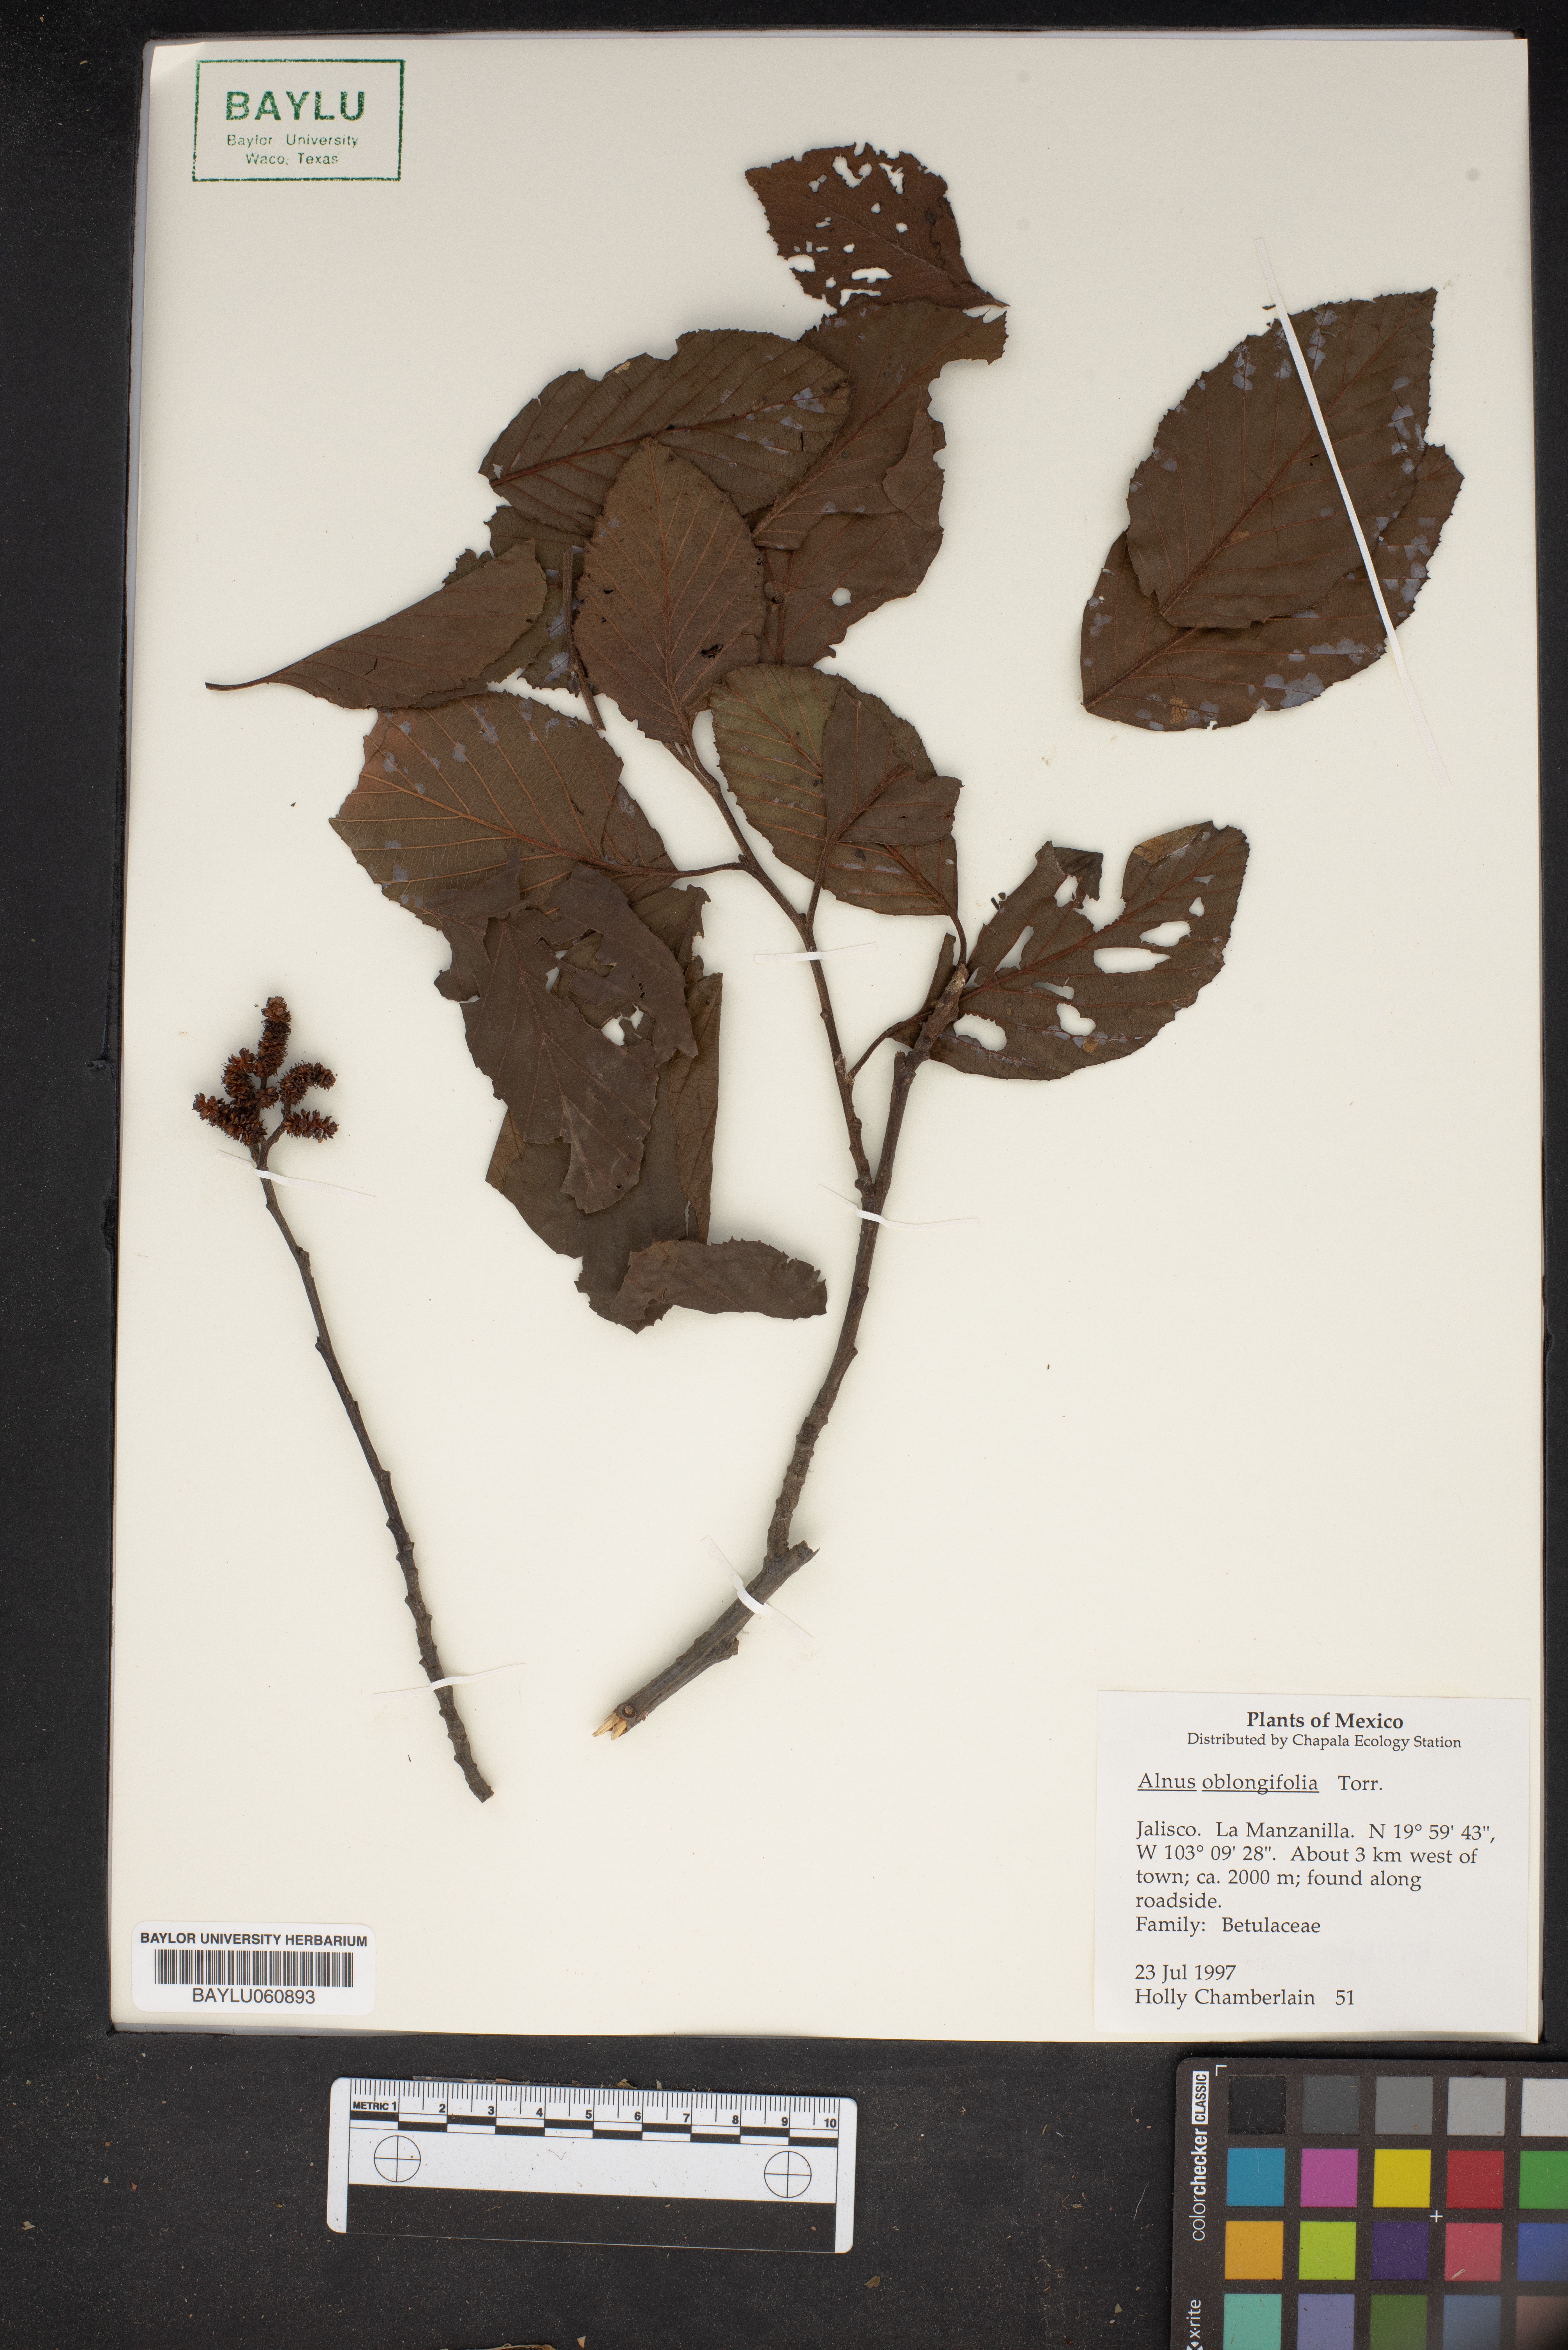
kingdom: Plantae
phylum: Tracheophyta
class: Magnoliopsida
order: Fagales
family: Betulaceae
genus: Alnus
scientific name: Alnus oblongifolia
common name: Arizona alder
